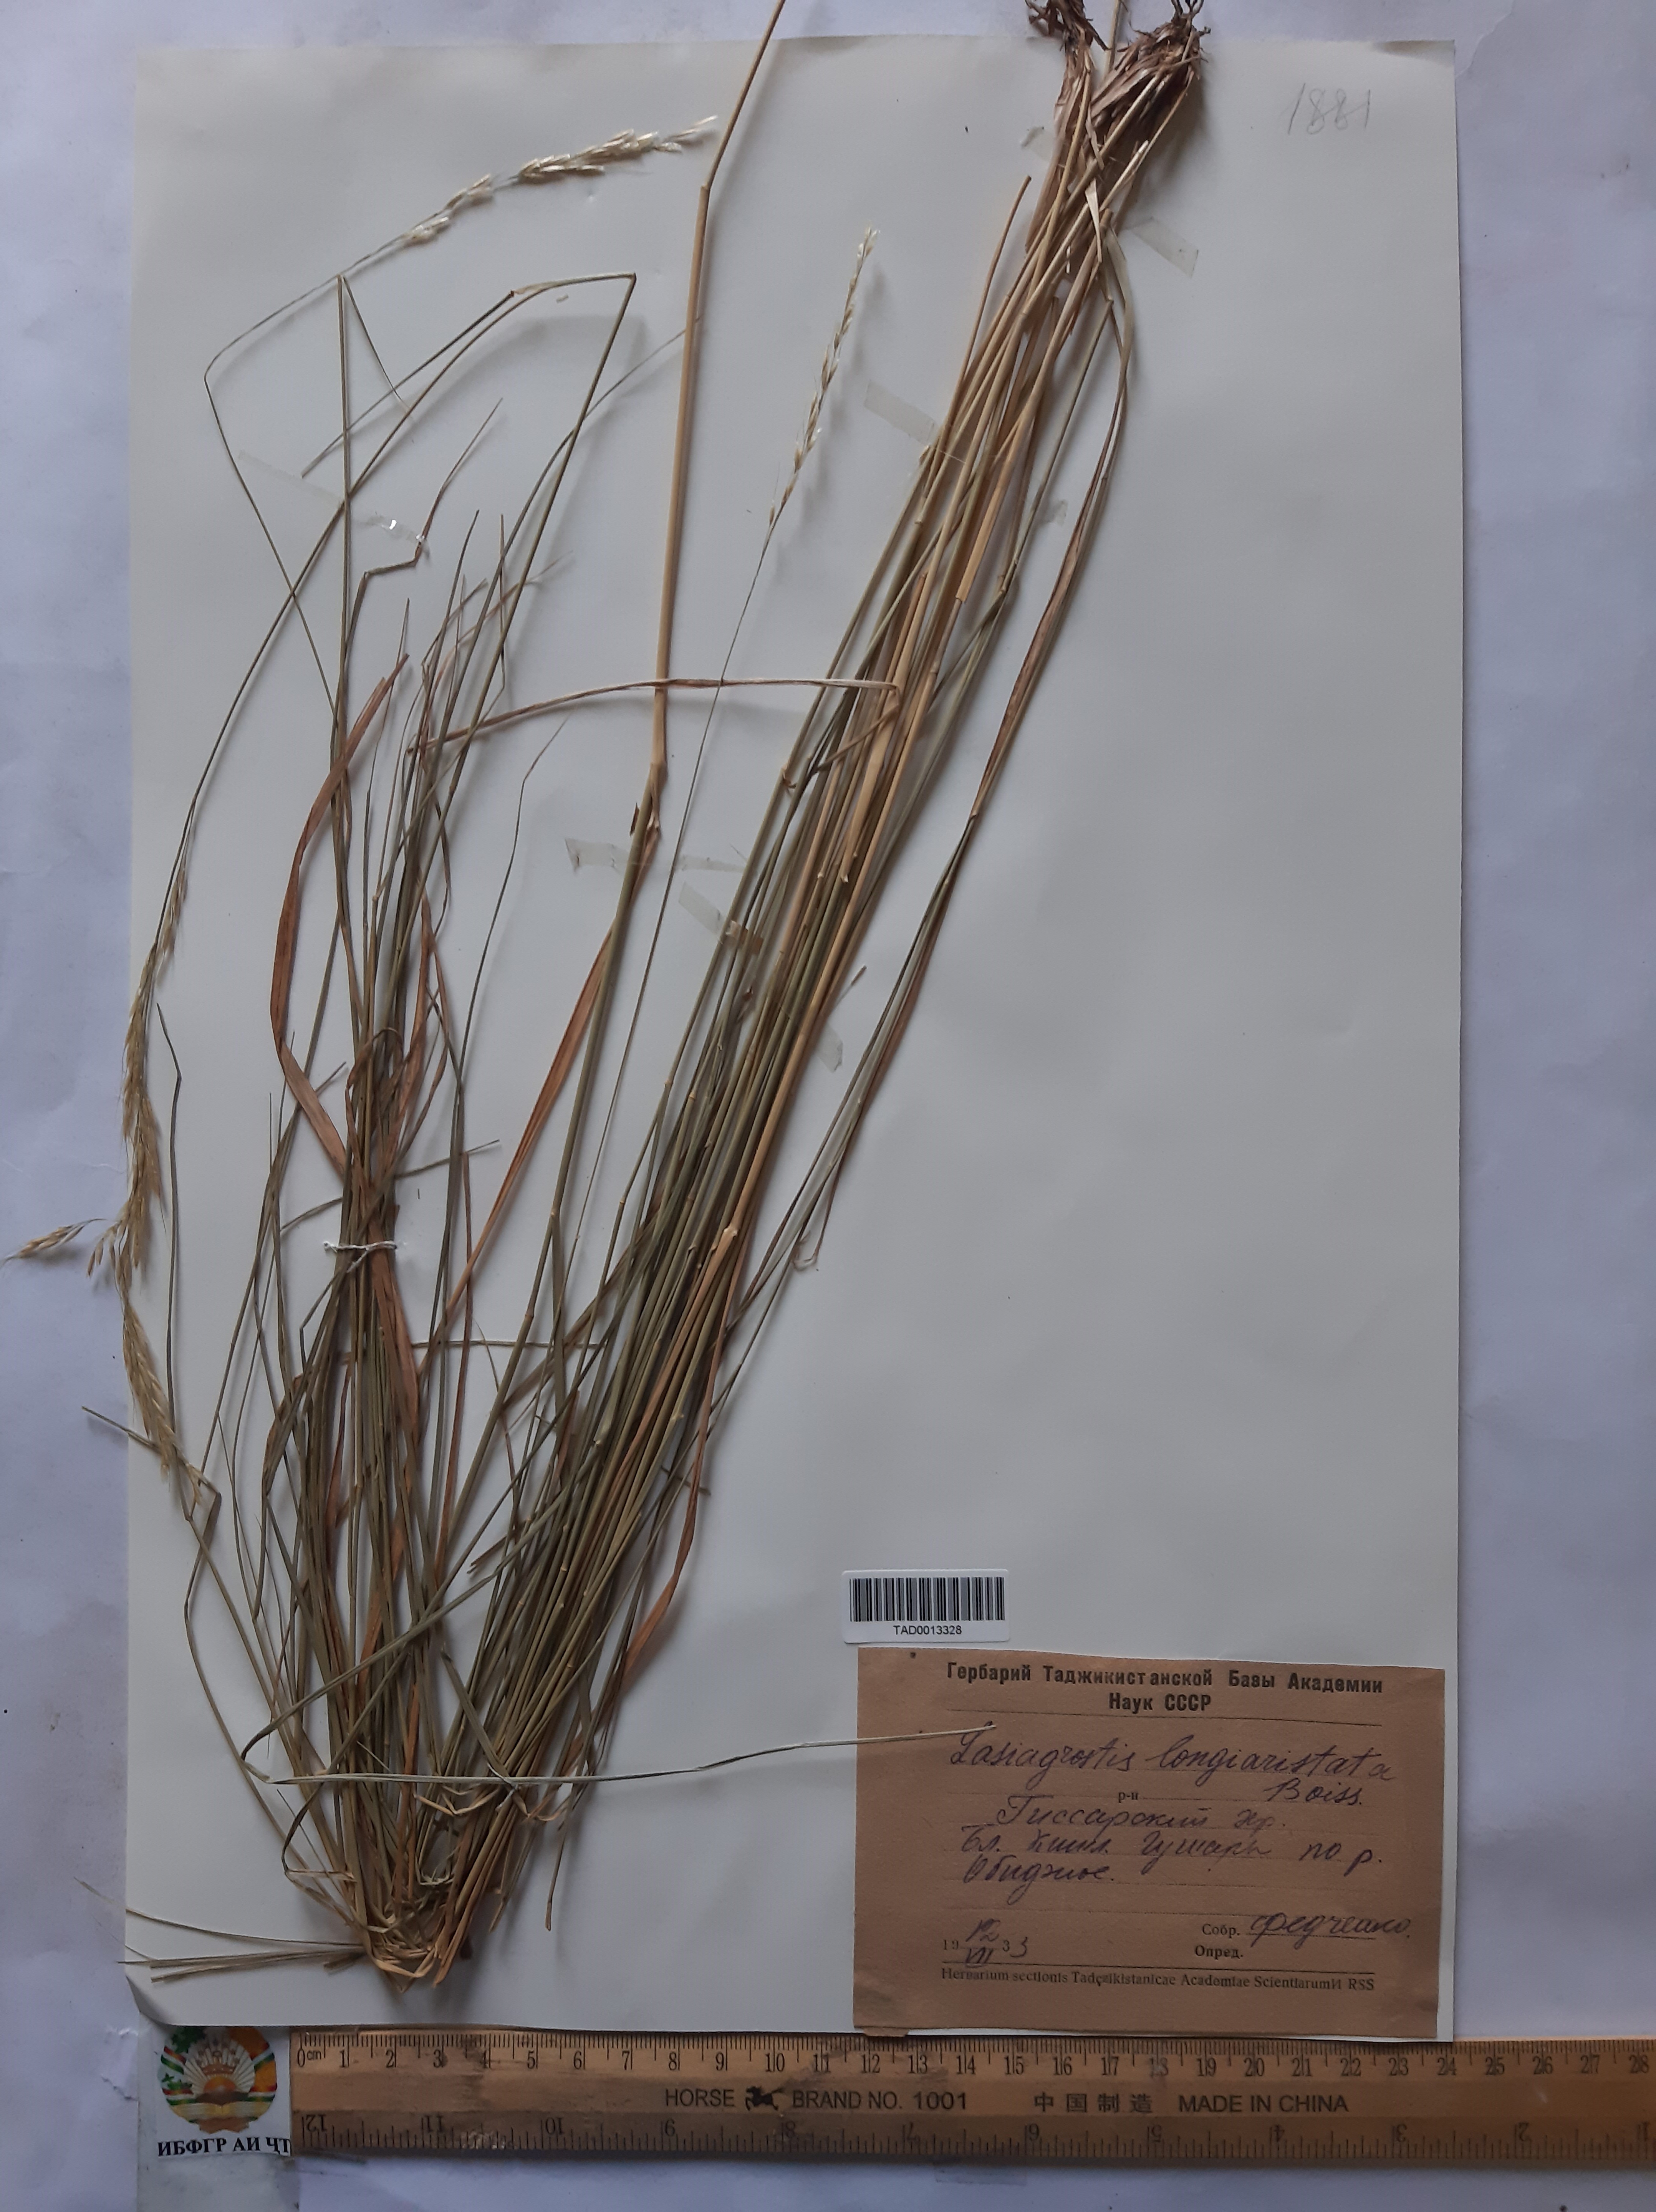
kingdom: Plantae
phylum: Tracheophyta
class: Liliopsida
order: Poales
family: Poaceae
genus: Achnatherum
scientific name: Achnatherum turcomanicum
